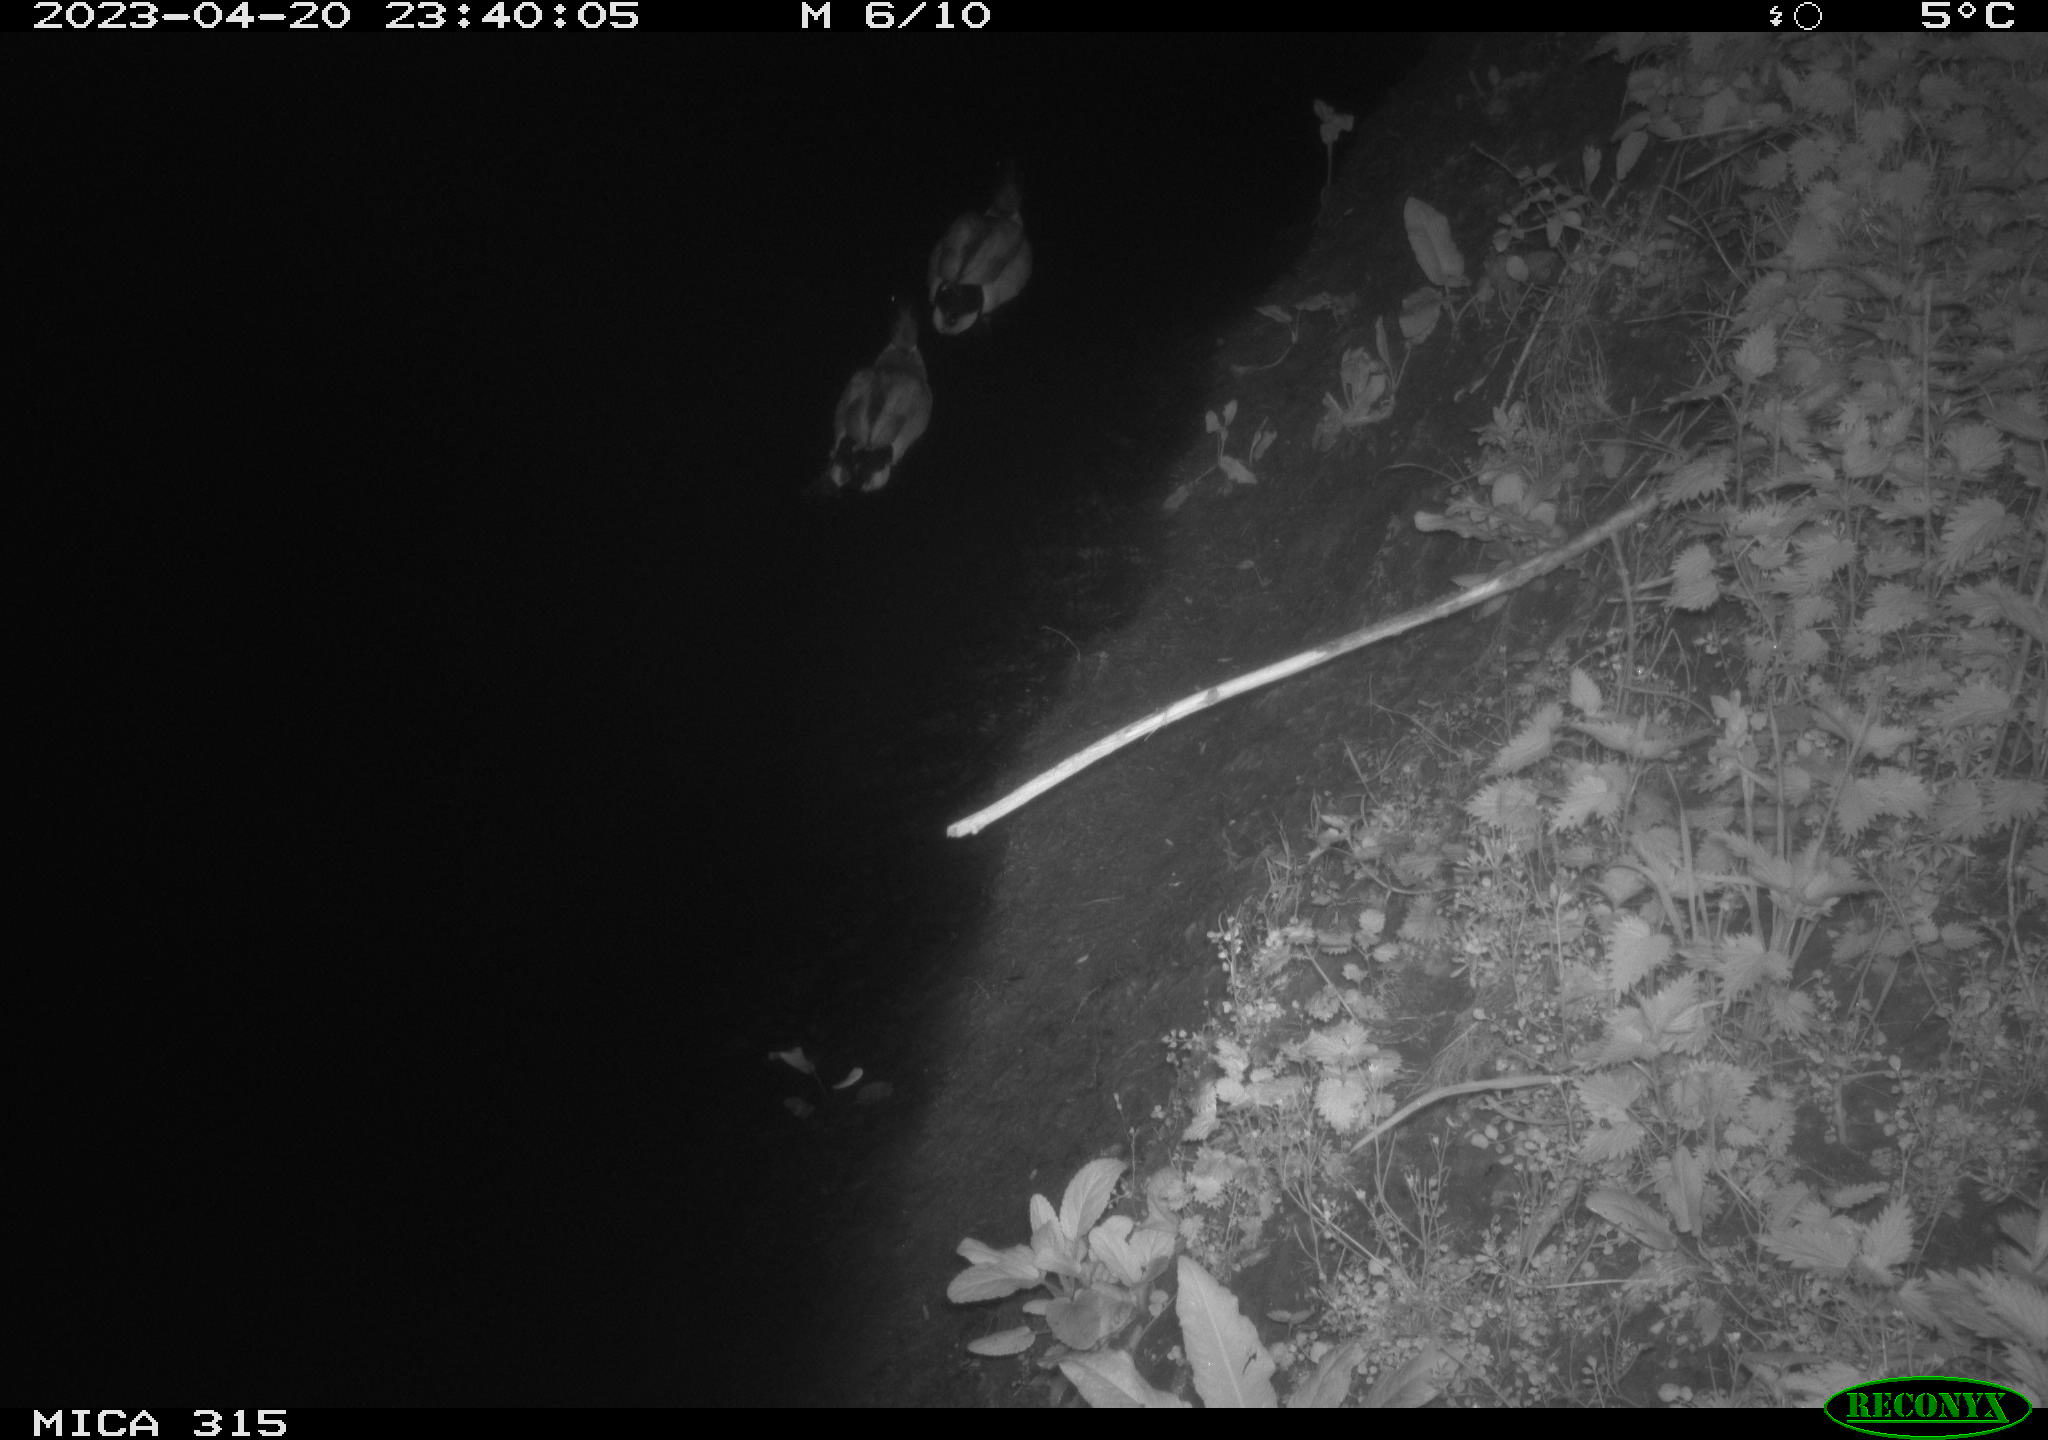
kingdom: Animalia
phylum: Chordata
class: Aves
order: Anseriformes
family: Anatidae
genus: Anas
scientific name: Anas
